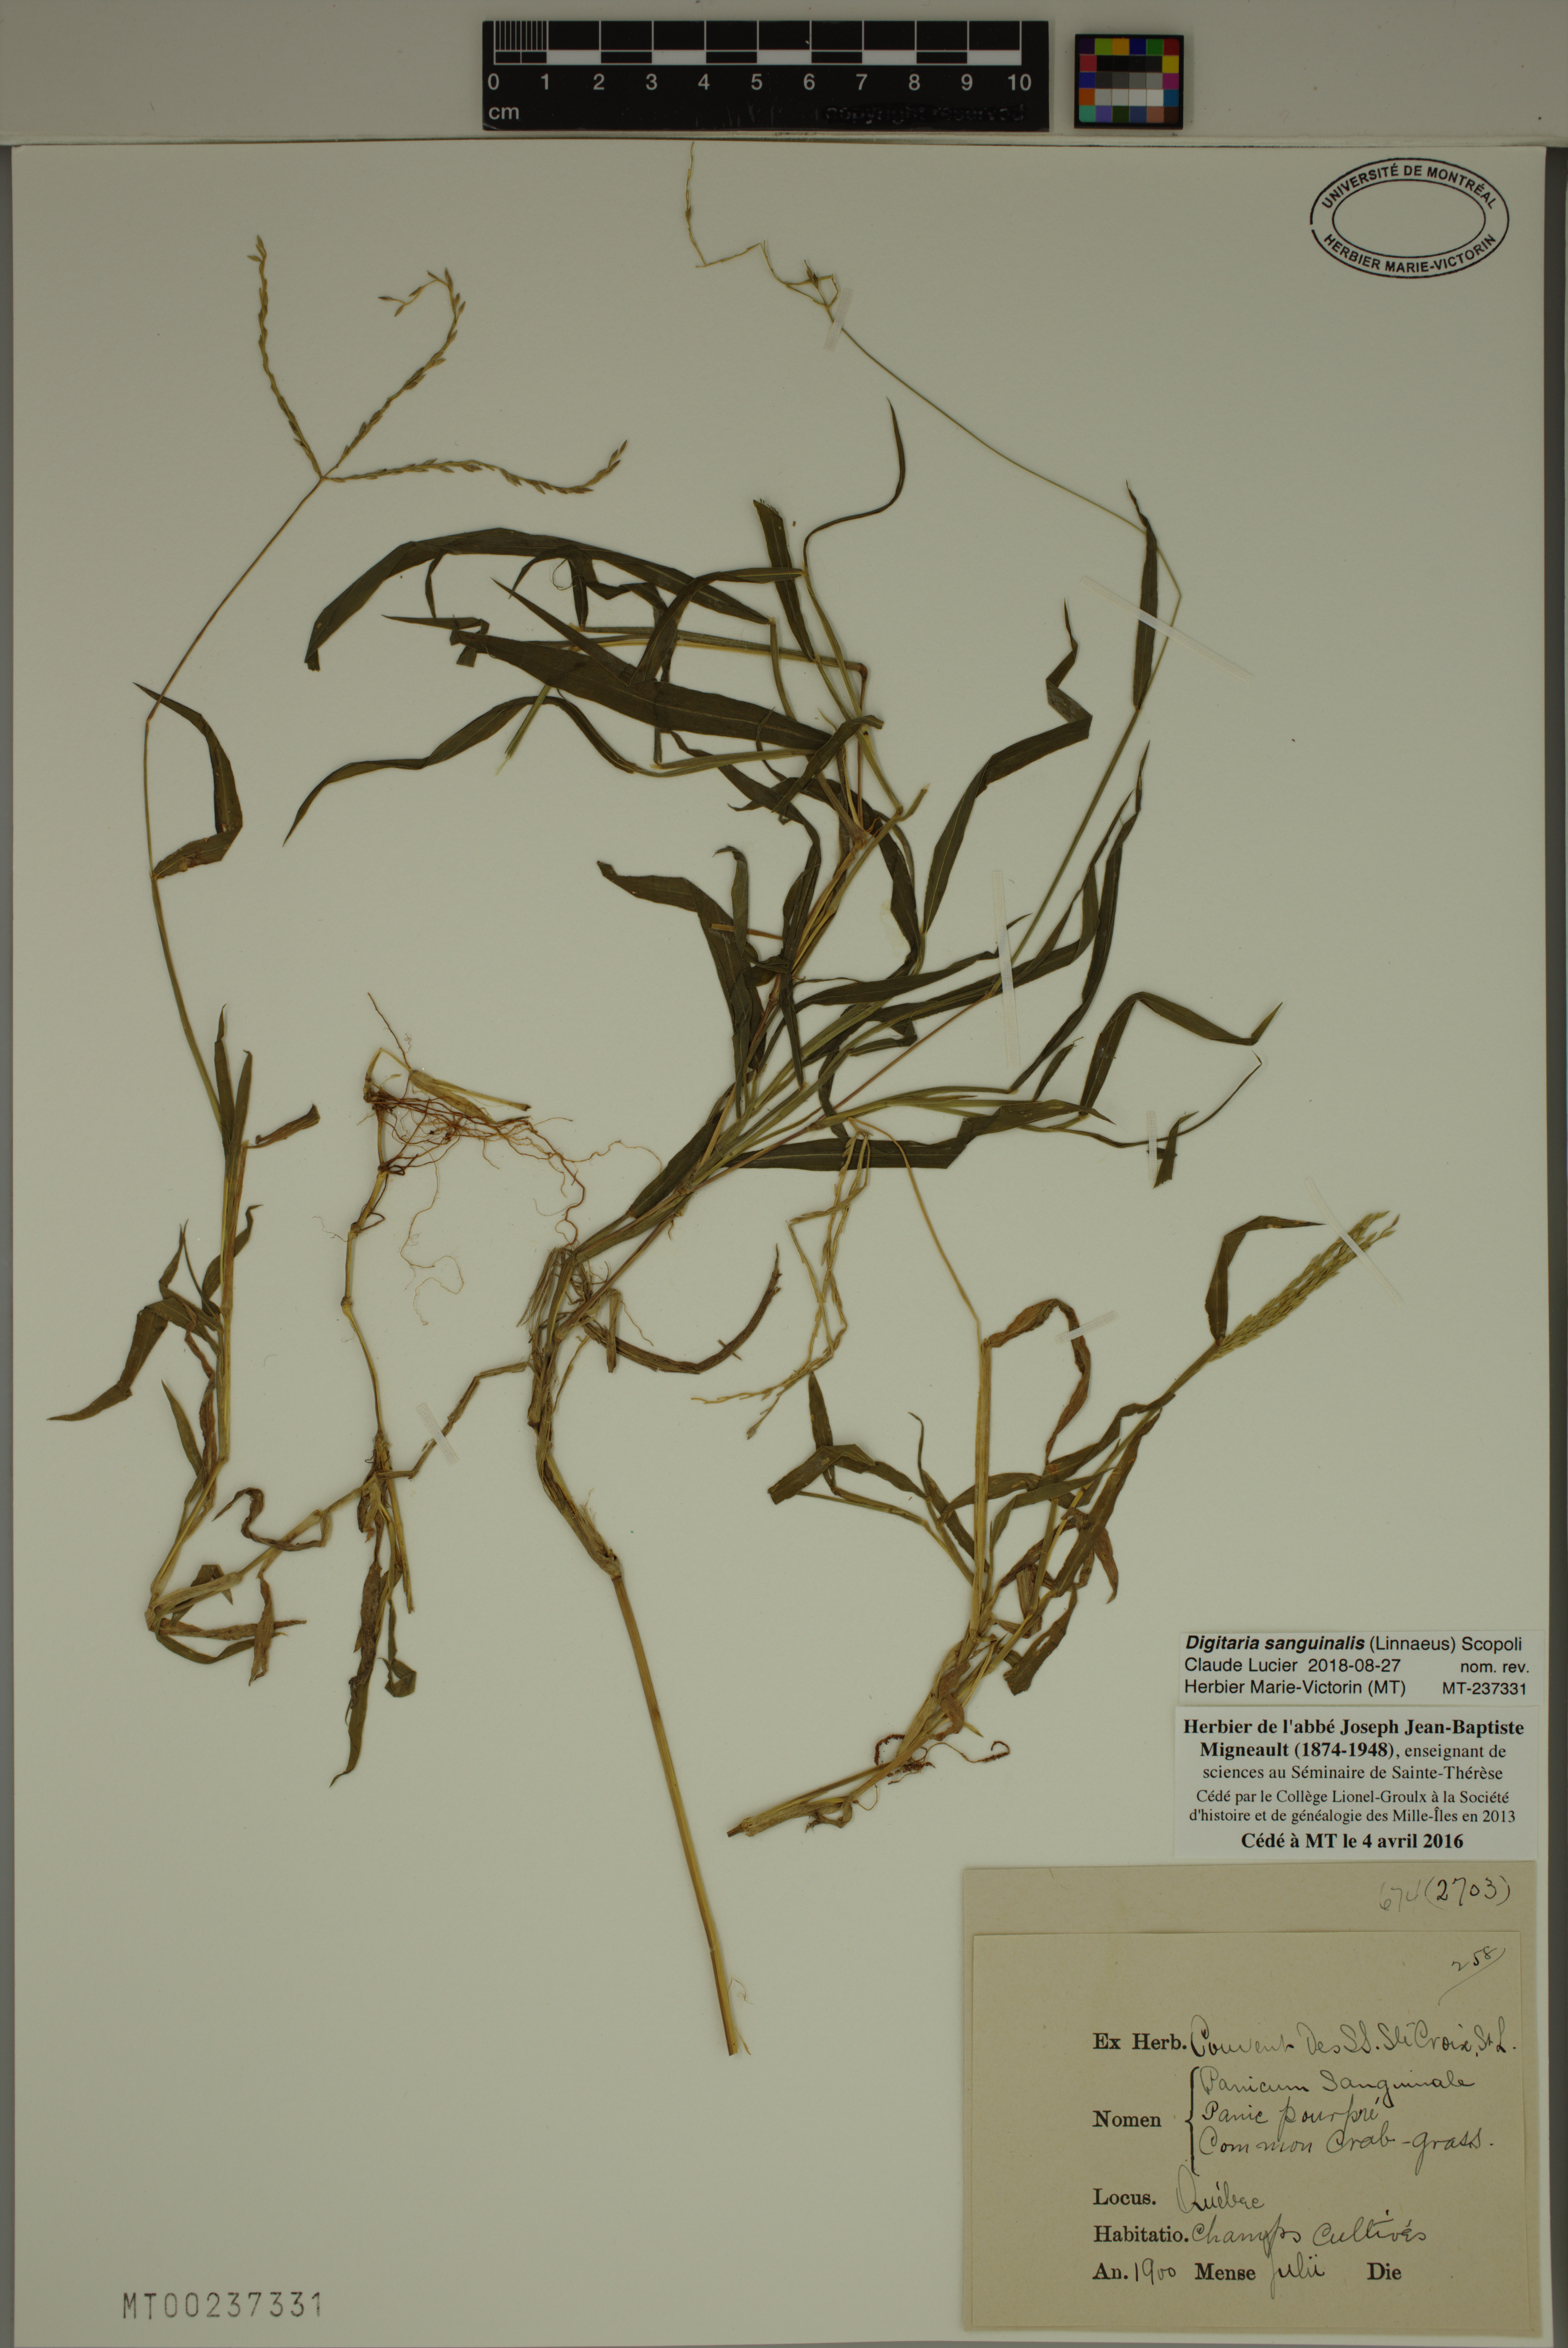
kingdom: Plantae
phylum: Tracheophyta
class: Liliopsida
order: Poales
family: Poaceae
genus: Digitaria
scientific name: Digitaria sanguinalis
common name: Hairy crabgrass
